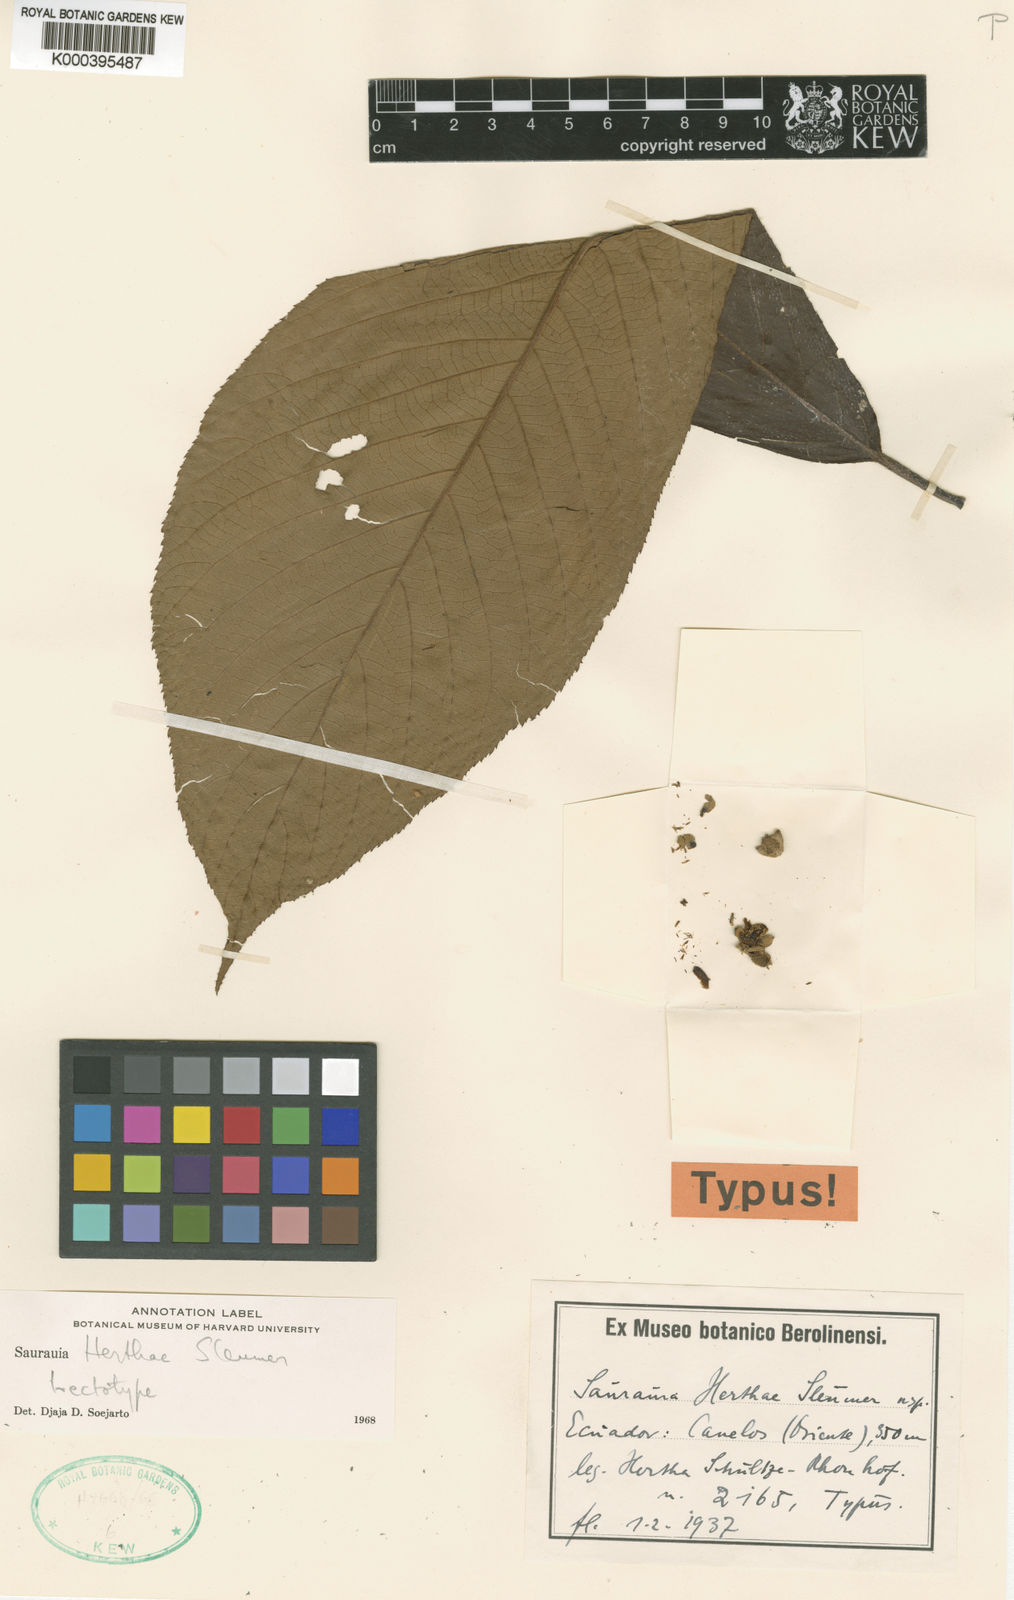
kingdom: Plantae
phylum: Tracheophyta
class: Magnoliopsida
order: Ericales
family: Actinidiaceae
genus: Saurauia
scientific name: Saurauia herthae
